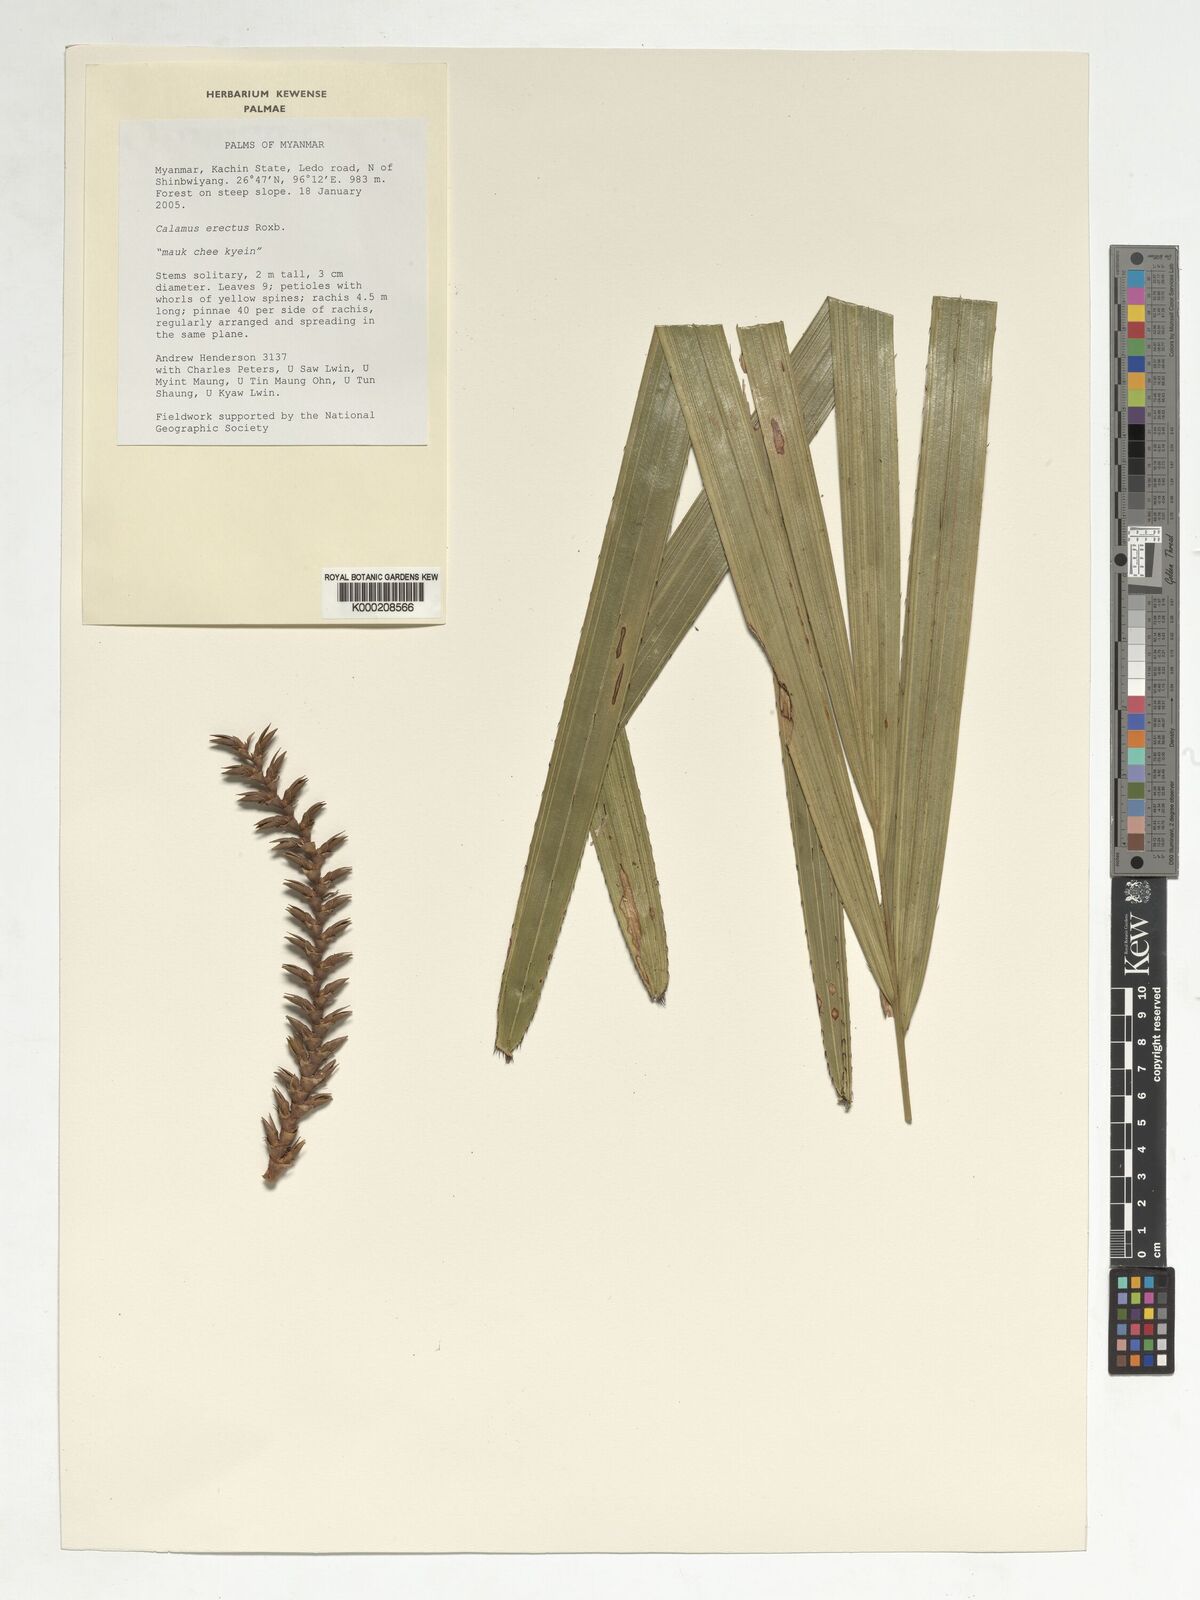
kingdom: Plantae
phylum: Tracheophyta
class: Liliopsida
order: Arecales
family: Arecaceae
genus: Calamus
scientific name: Calamus erectus
